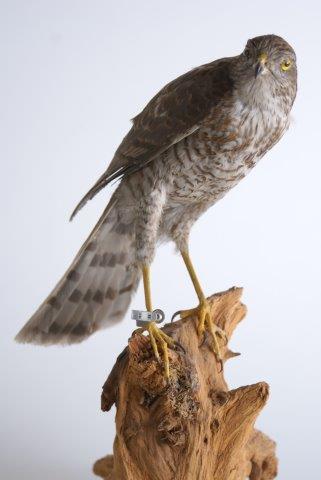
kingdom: Animalia
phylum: Chordata
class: Aves
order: Accipitriformes
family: Accipitridae
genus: Accipiter
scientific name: Accipiter nisus
